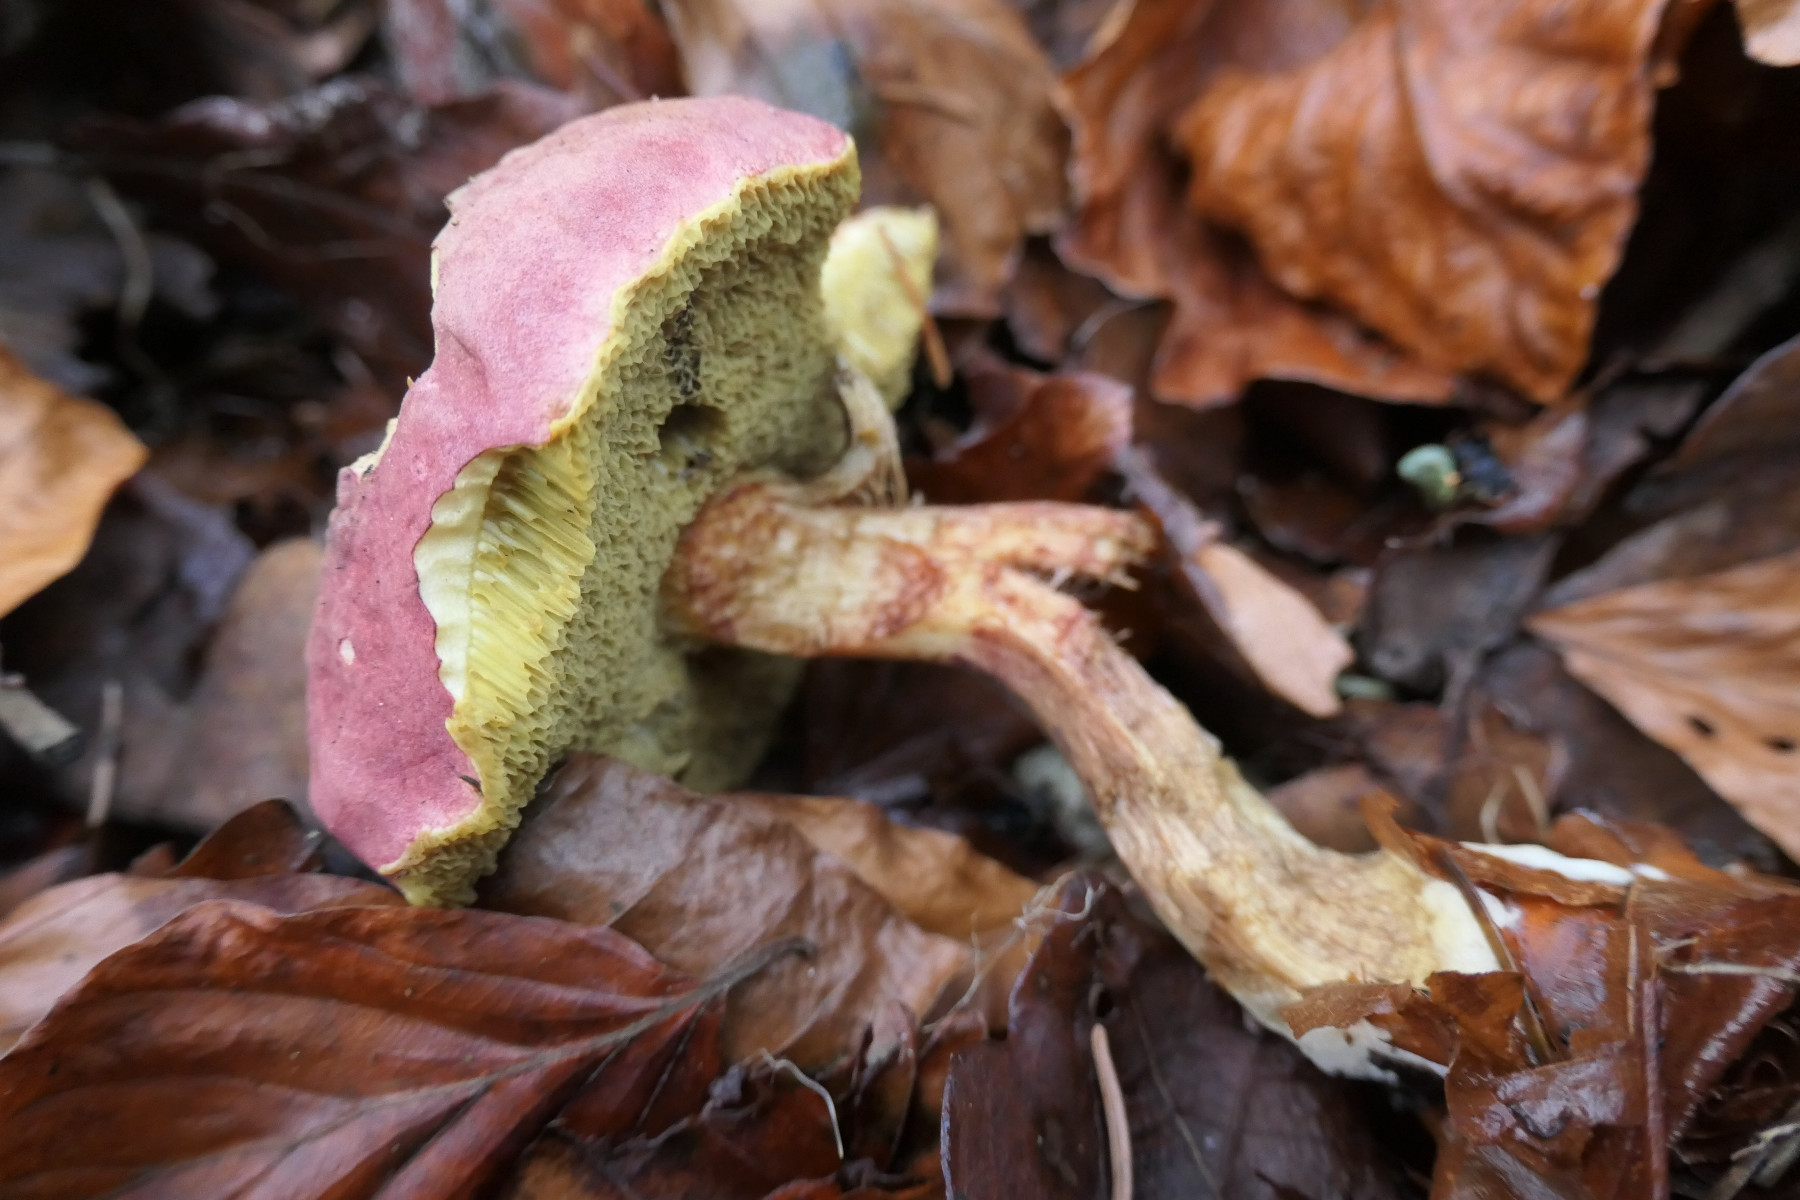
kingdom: Fungi
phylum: Basidiomycota
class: Agaricomycetes
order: Boletales
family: Boletaceae
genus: Hortiboletus
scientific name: Hortiboletus rubellus
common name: blodrød rørhat
